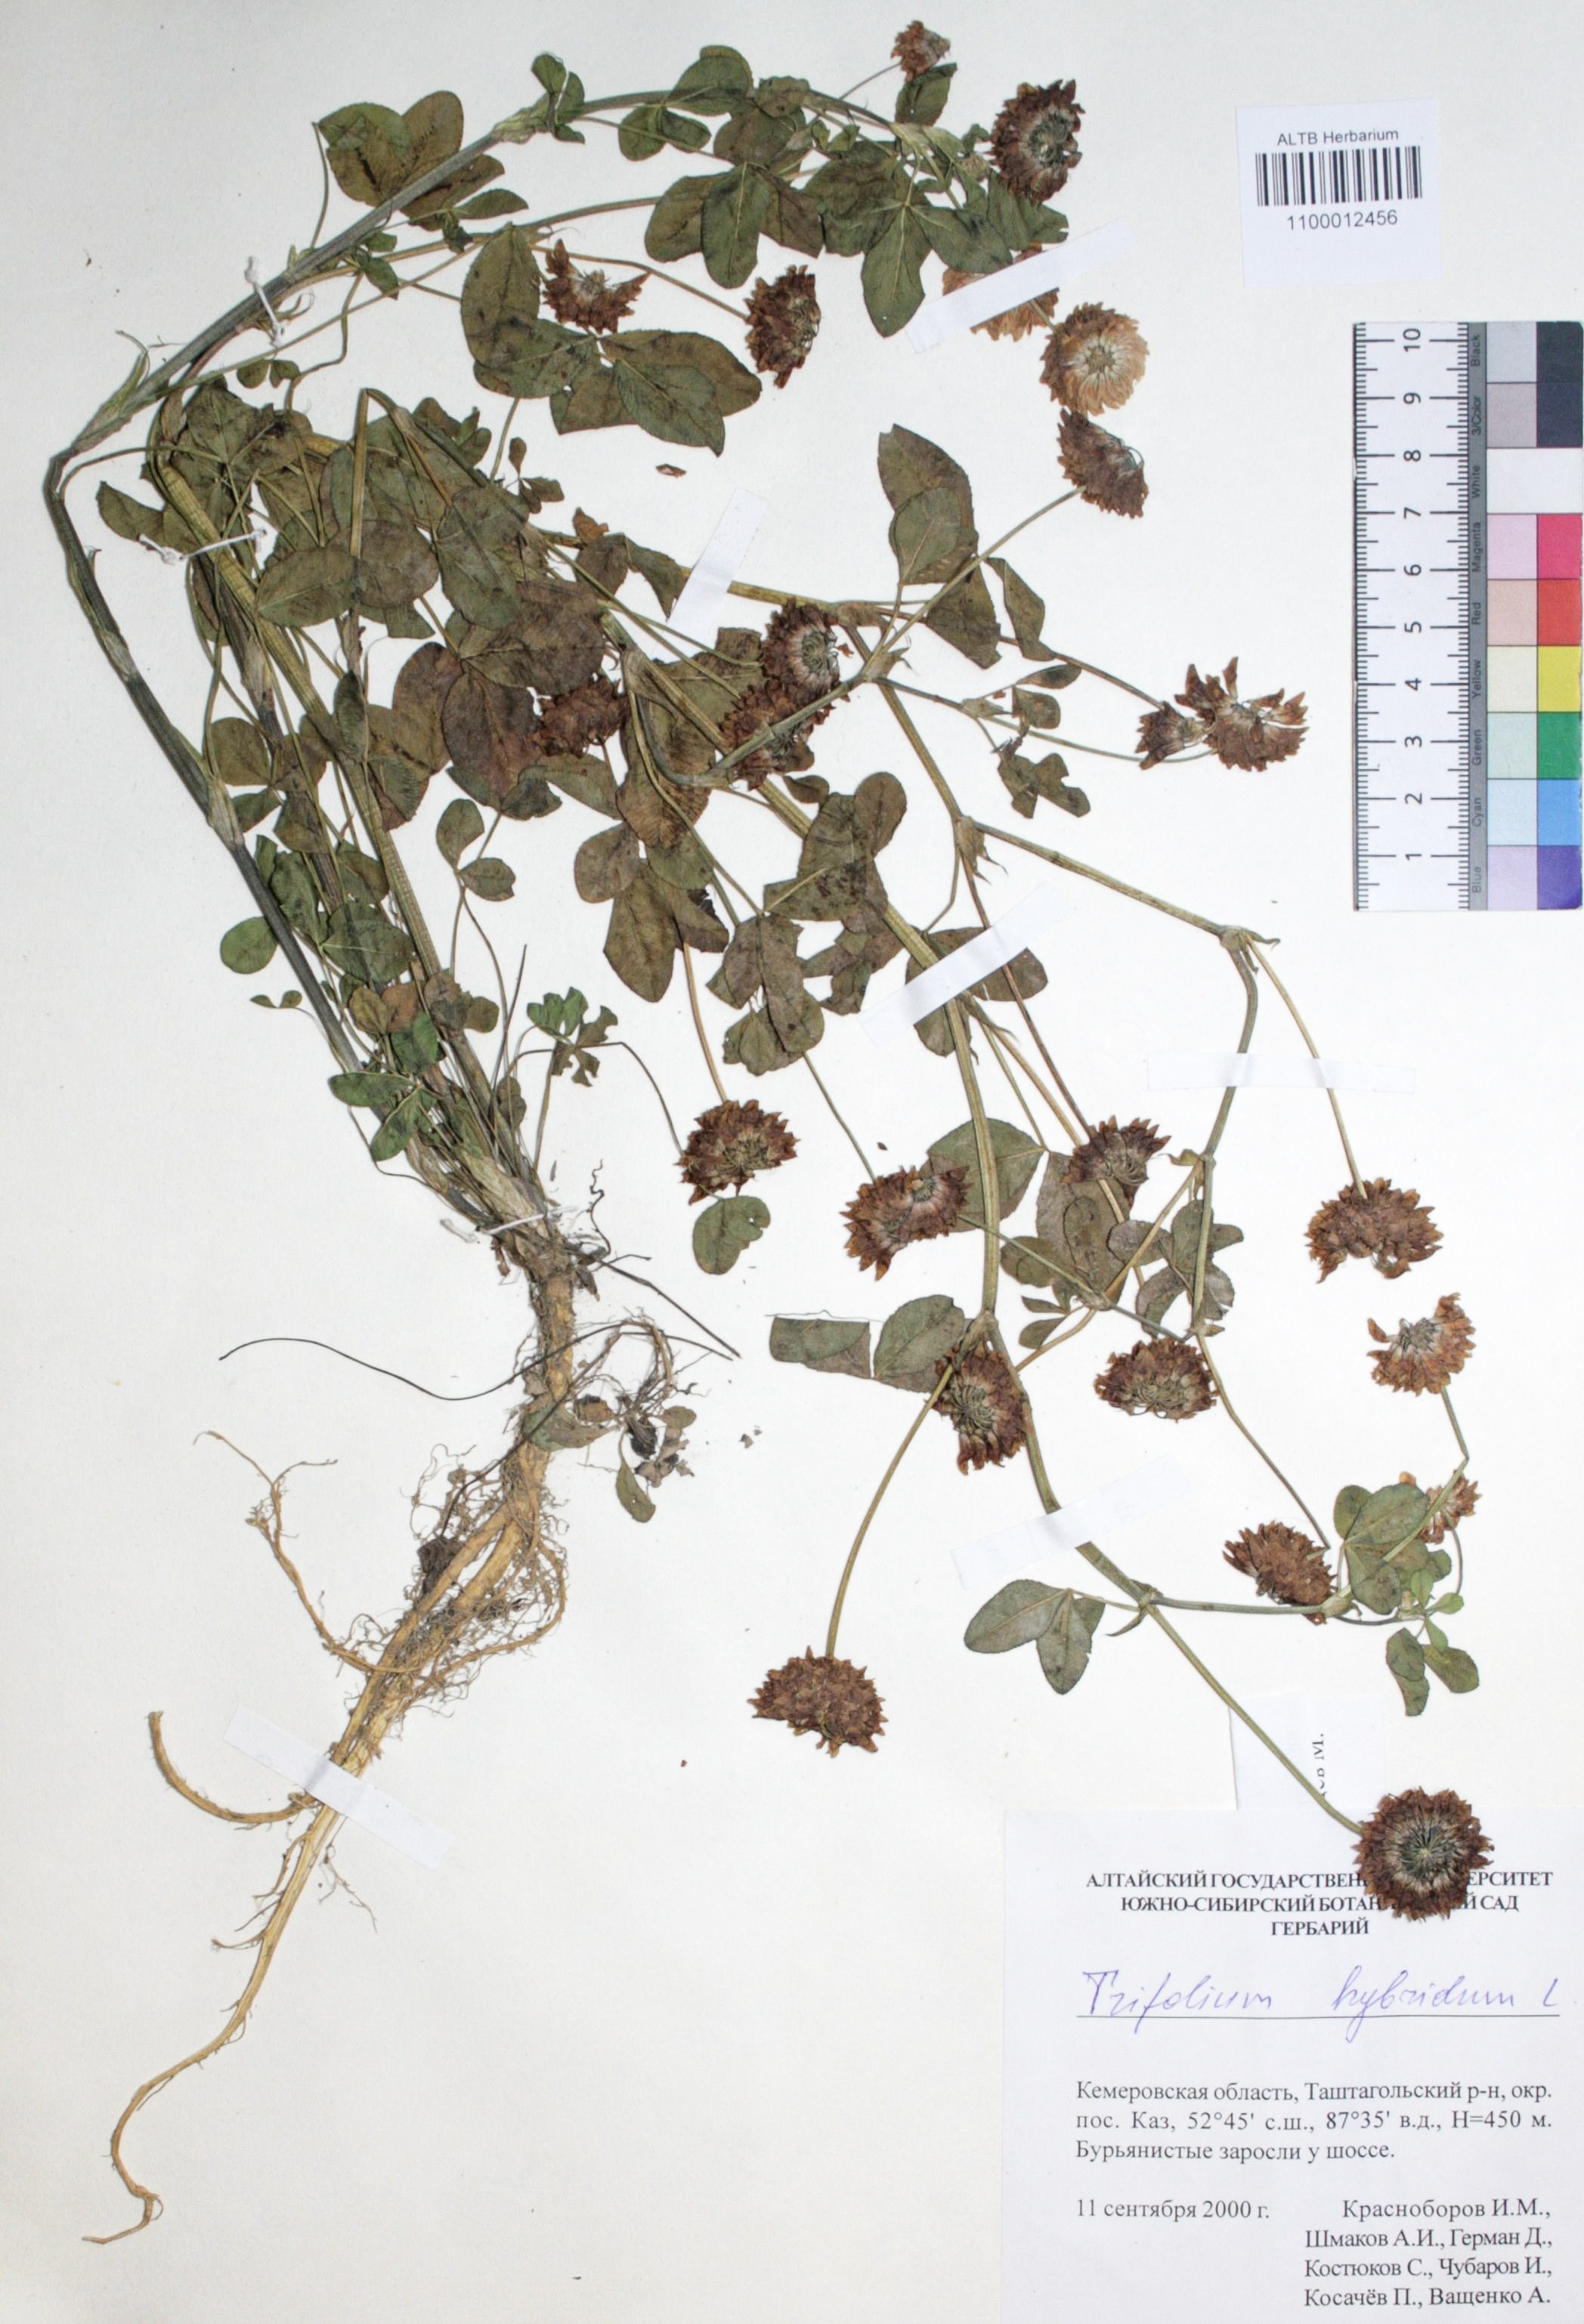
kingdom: Plantae
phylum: Tracheophyta
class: Magnoliopsida
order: Fabales
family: Fabaceae
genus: Trifolium
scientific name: Trifolium hybridum
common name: Alsike clover
